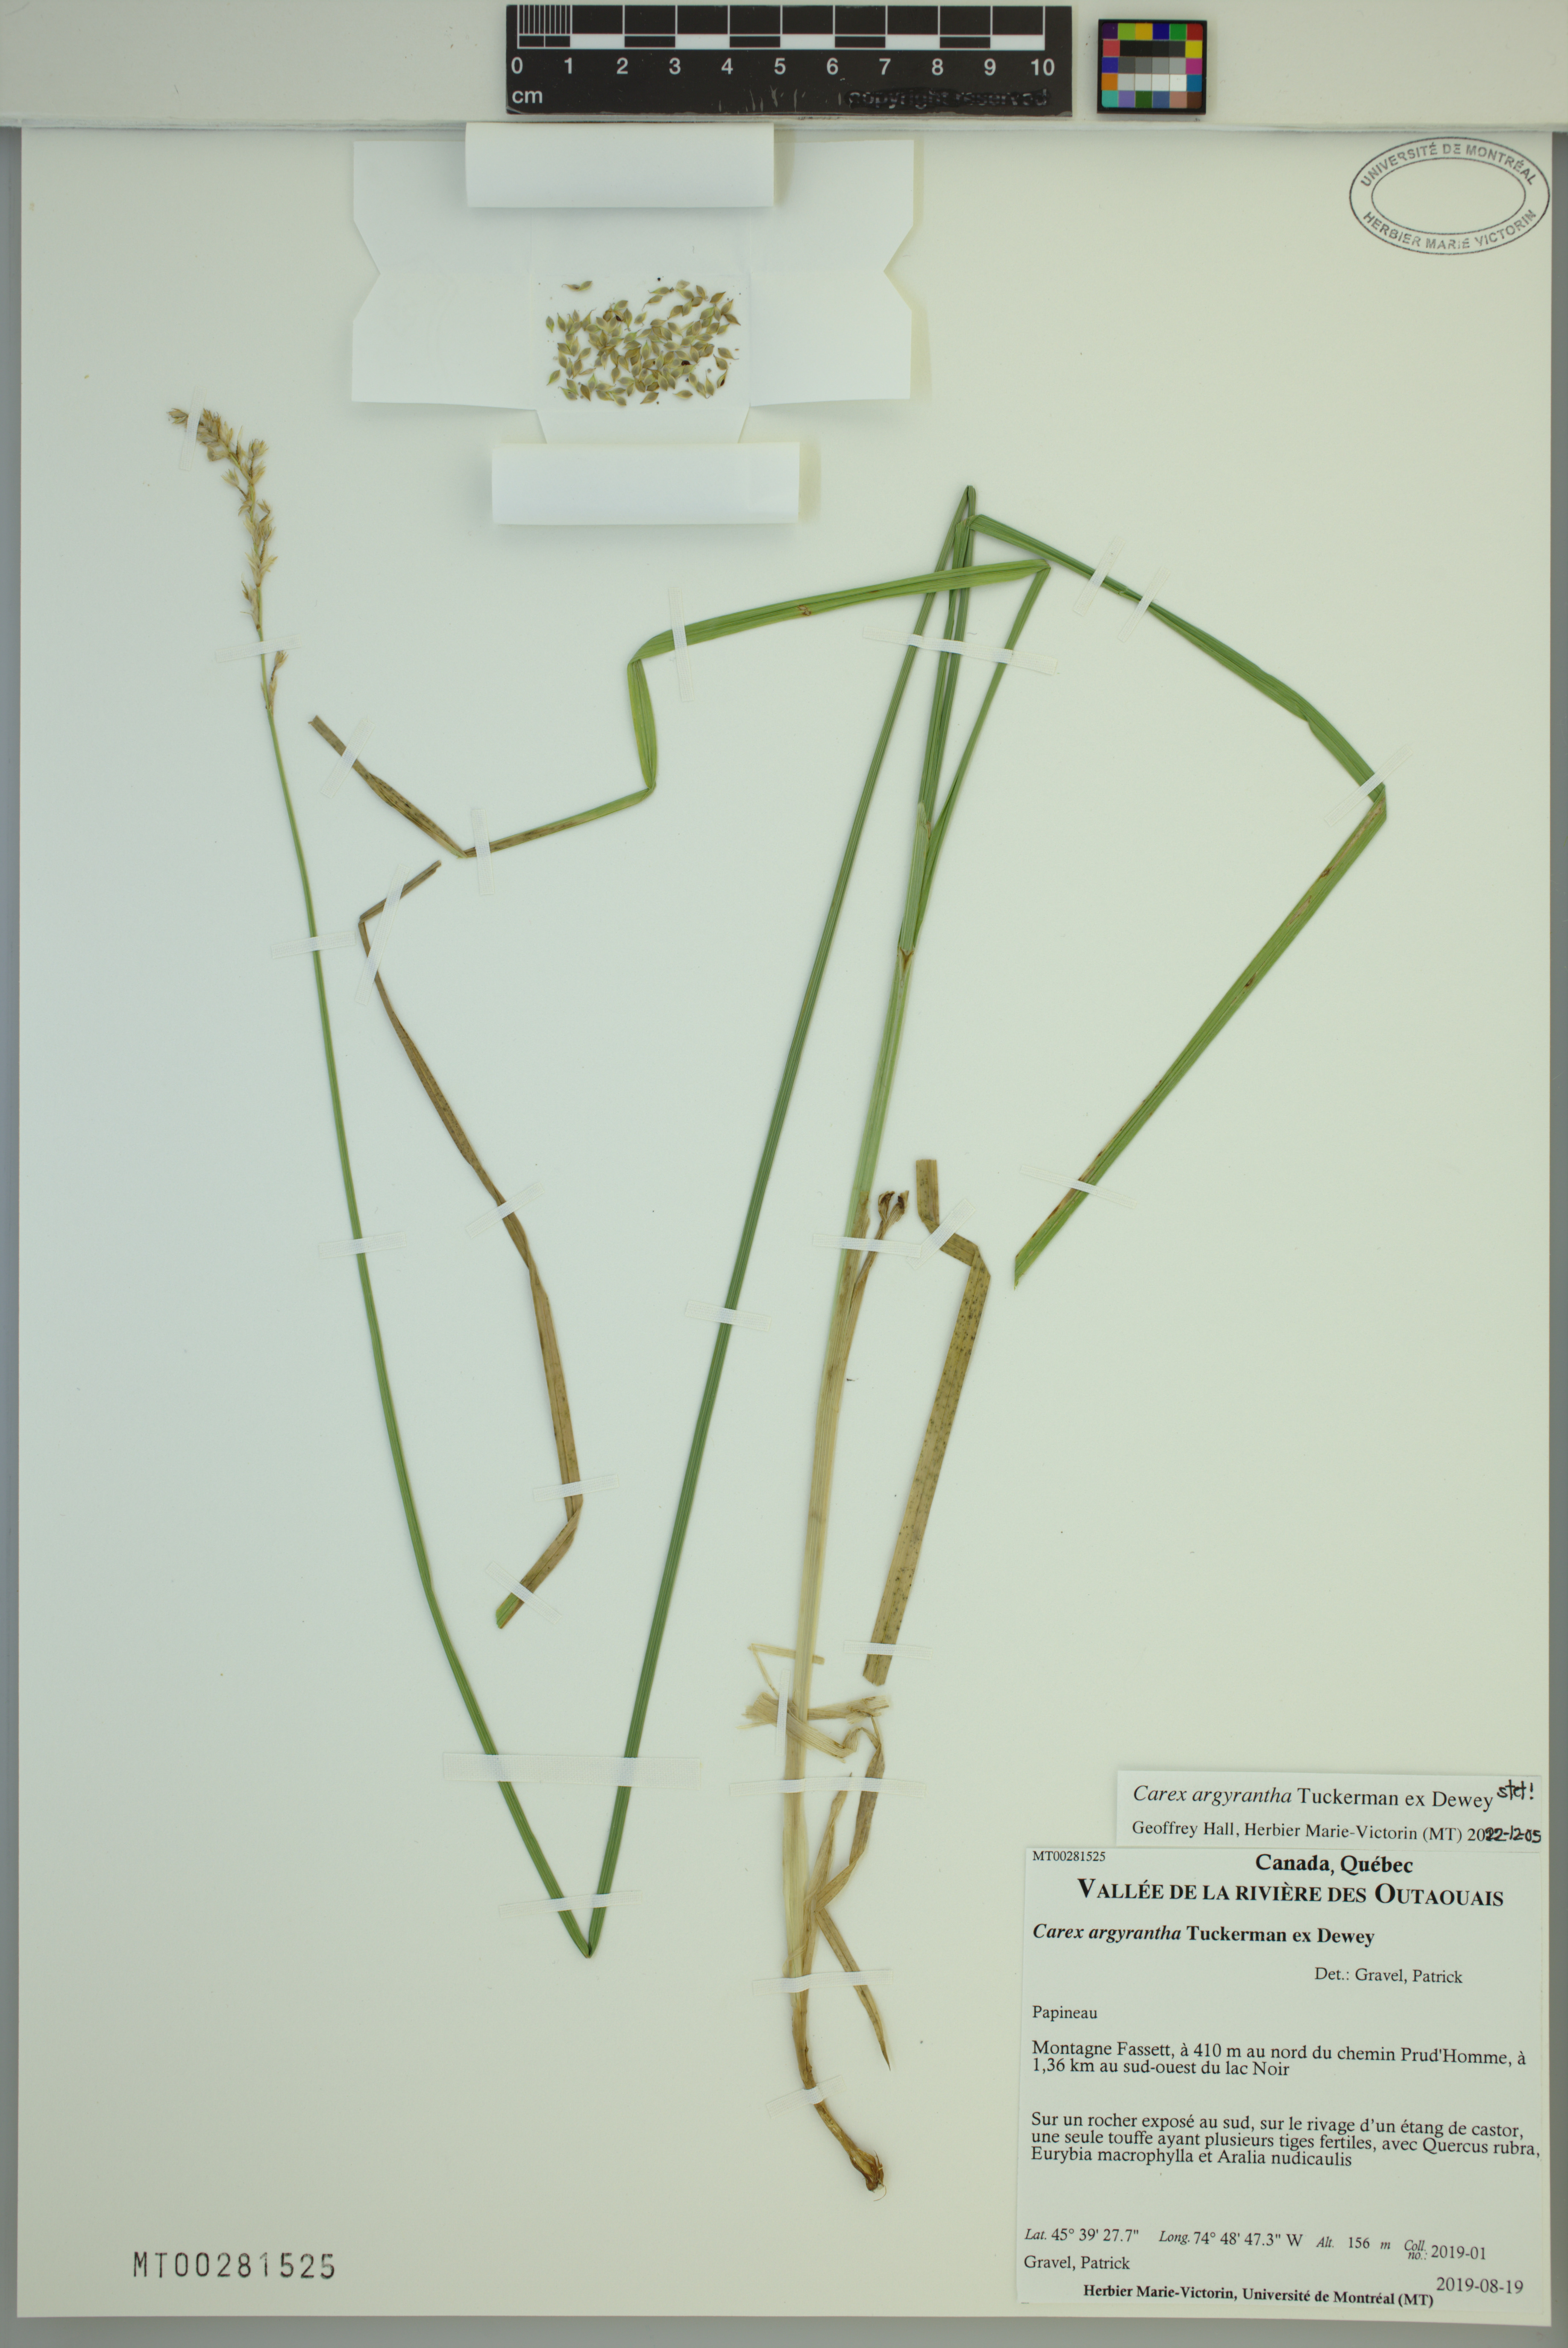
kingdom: Plantae
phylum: Tracheophyta
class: Liliopsida
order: Poales
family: Cyperaceae
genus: Carex
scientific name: Carex argyrantha
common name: Silvery-flowered sedge
